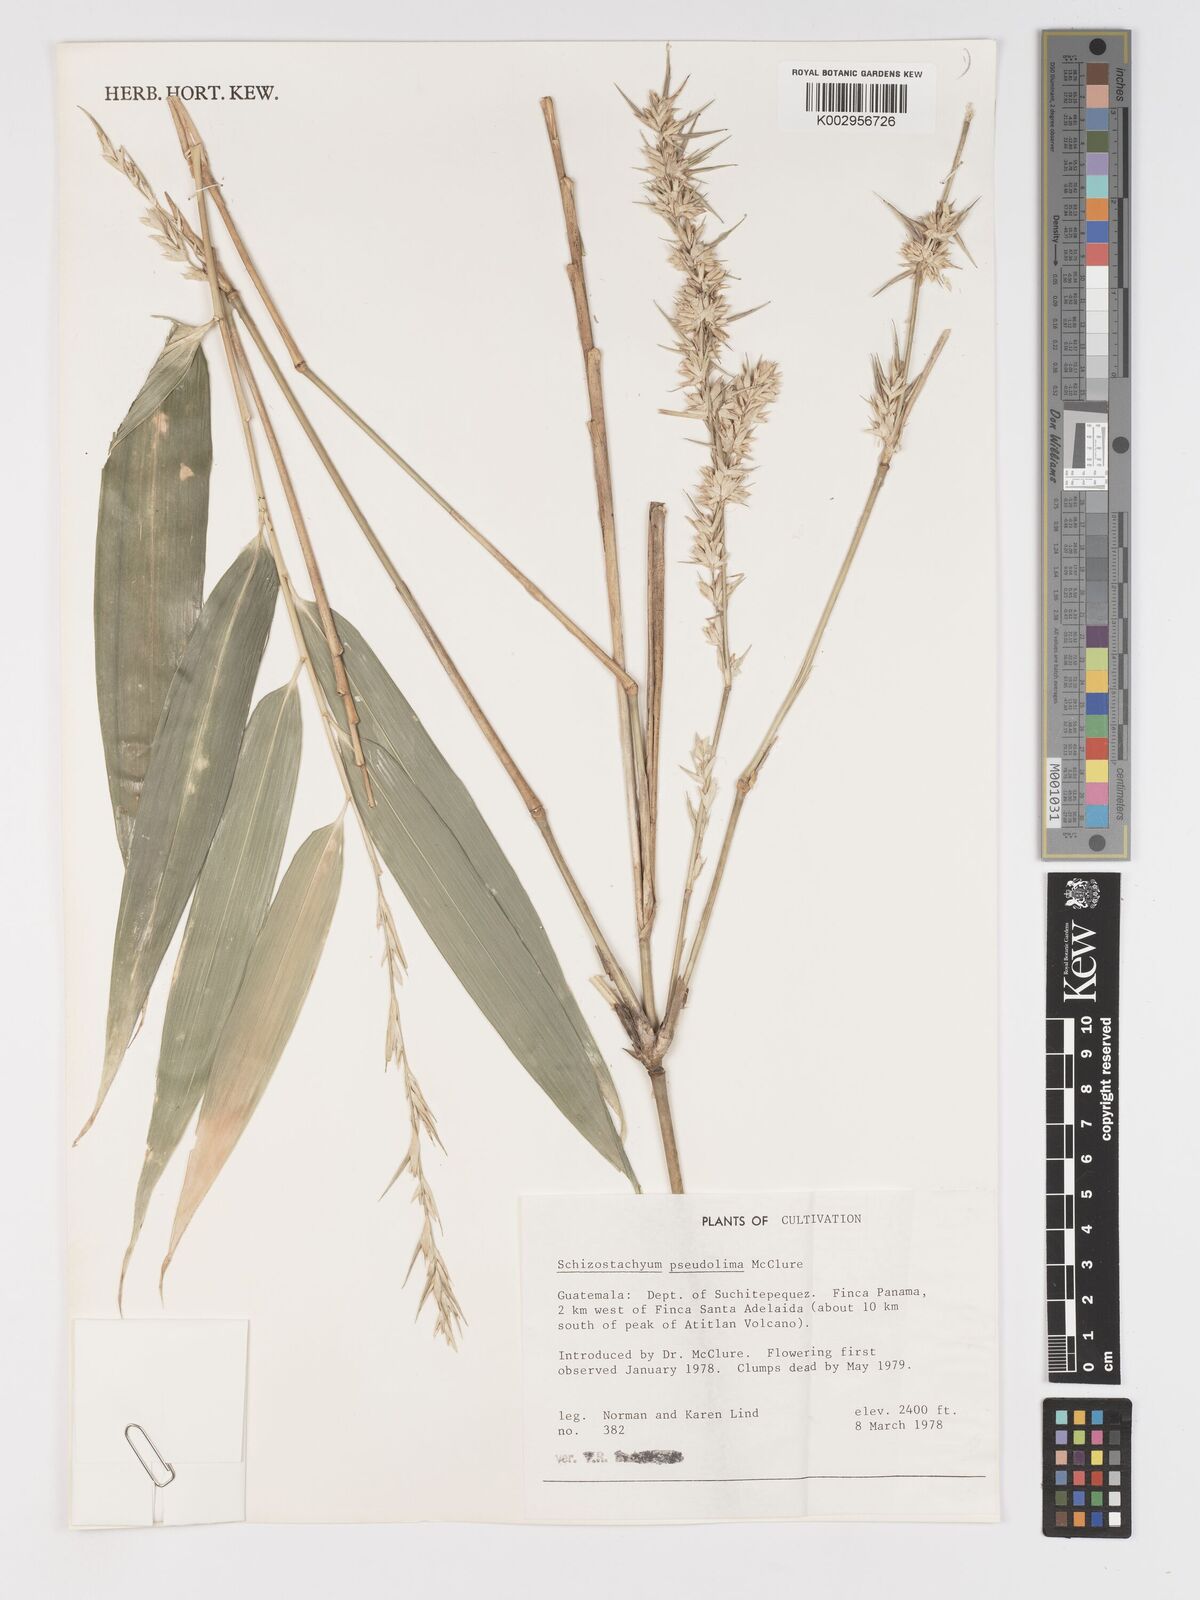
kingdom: Plantae
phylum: Tracheophyta
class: Liliopsida
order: Poales
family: Poaceae
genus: Schizostachyum
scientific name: Schizostachyum pseudolima
